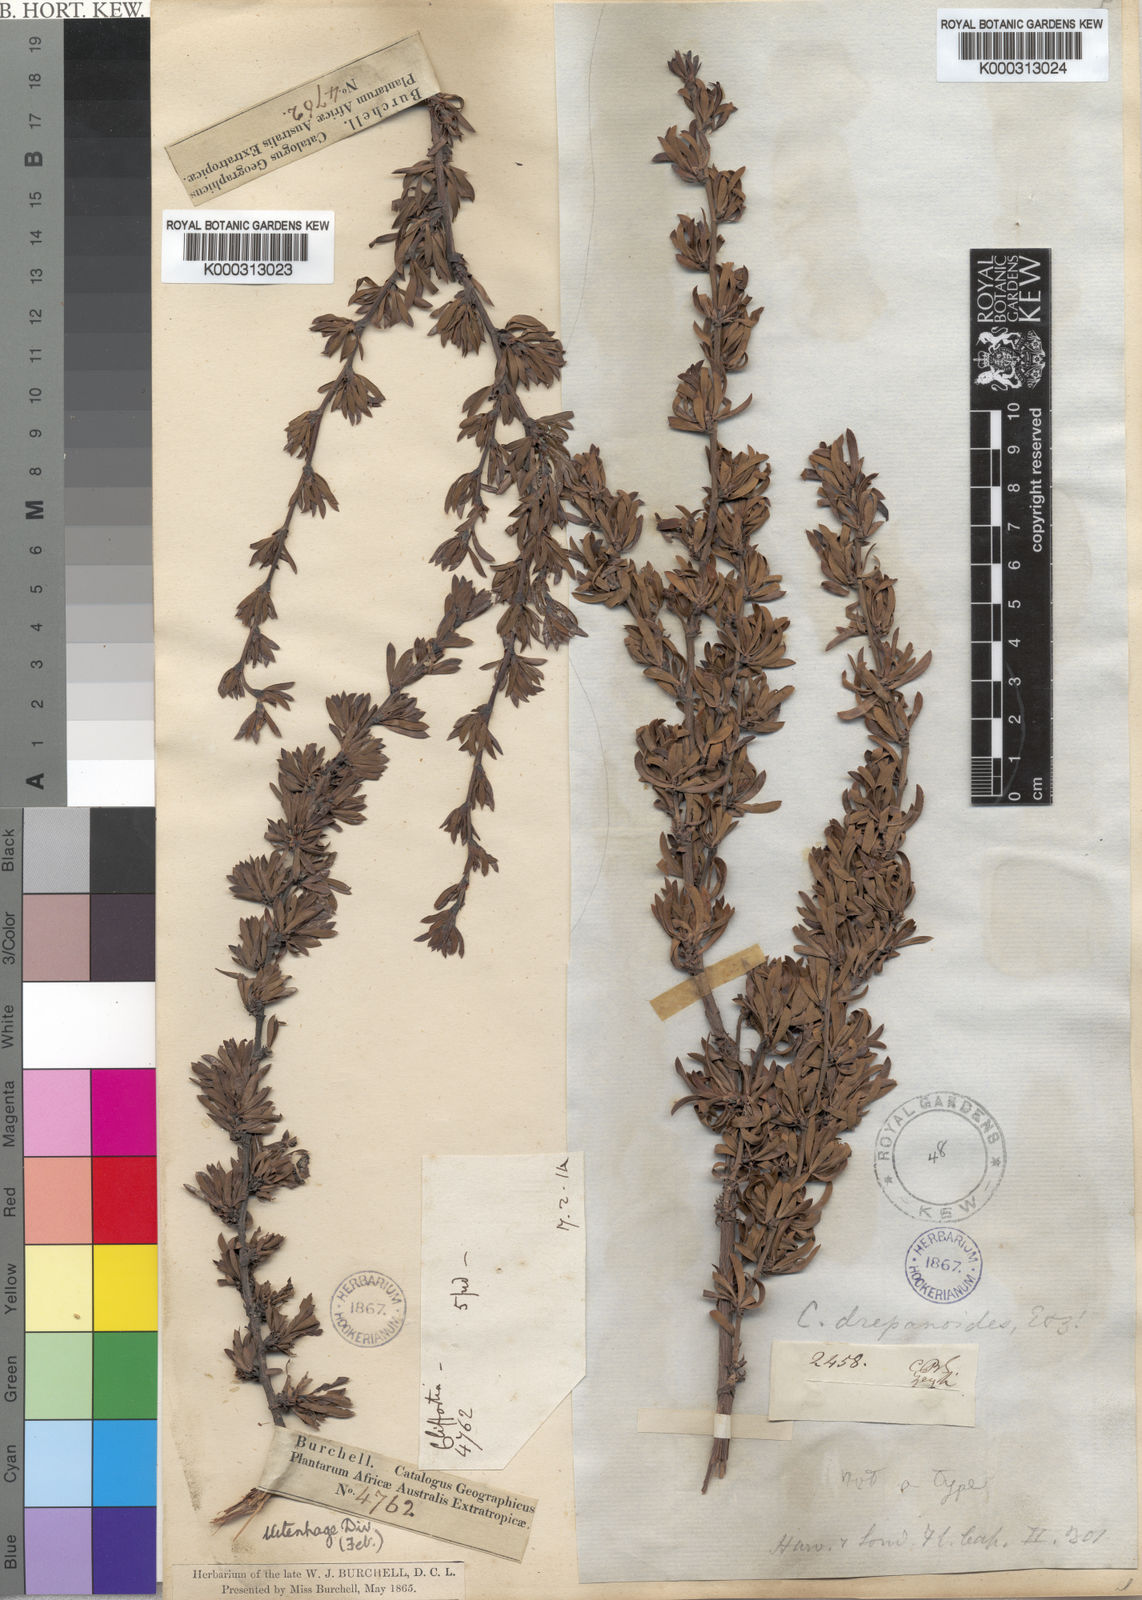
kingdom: Plantae
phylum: Tracheophyta
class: Magnoliopsida
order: Rosales
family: Rosaceae
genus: Cliffortia
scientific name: Cliffortia drepanoides
